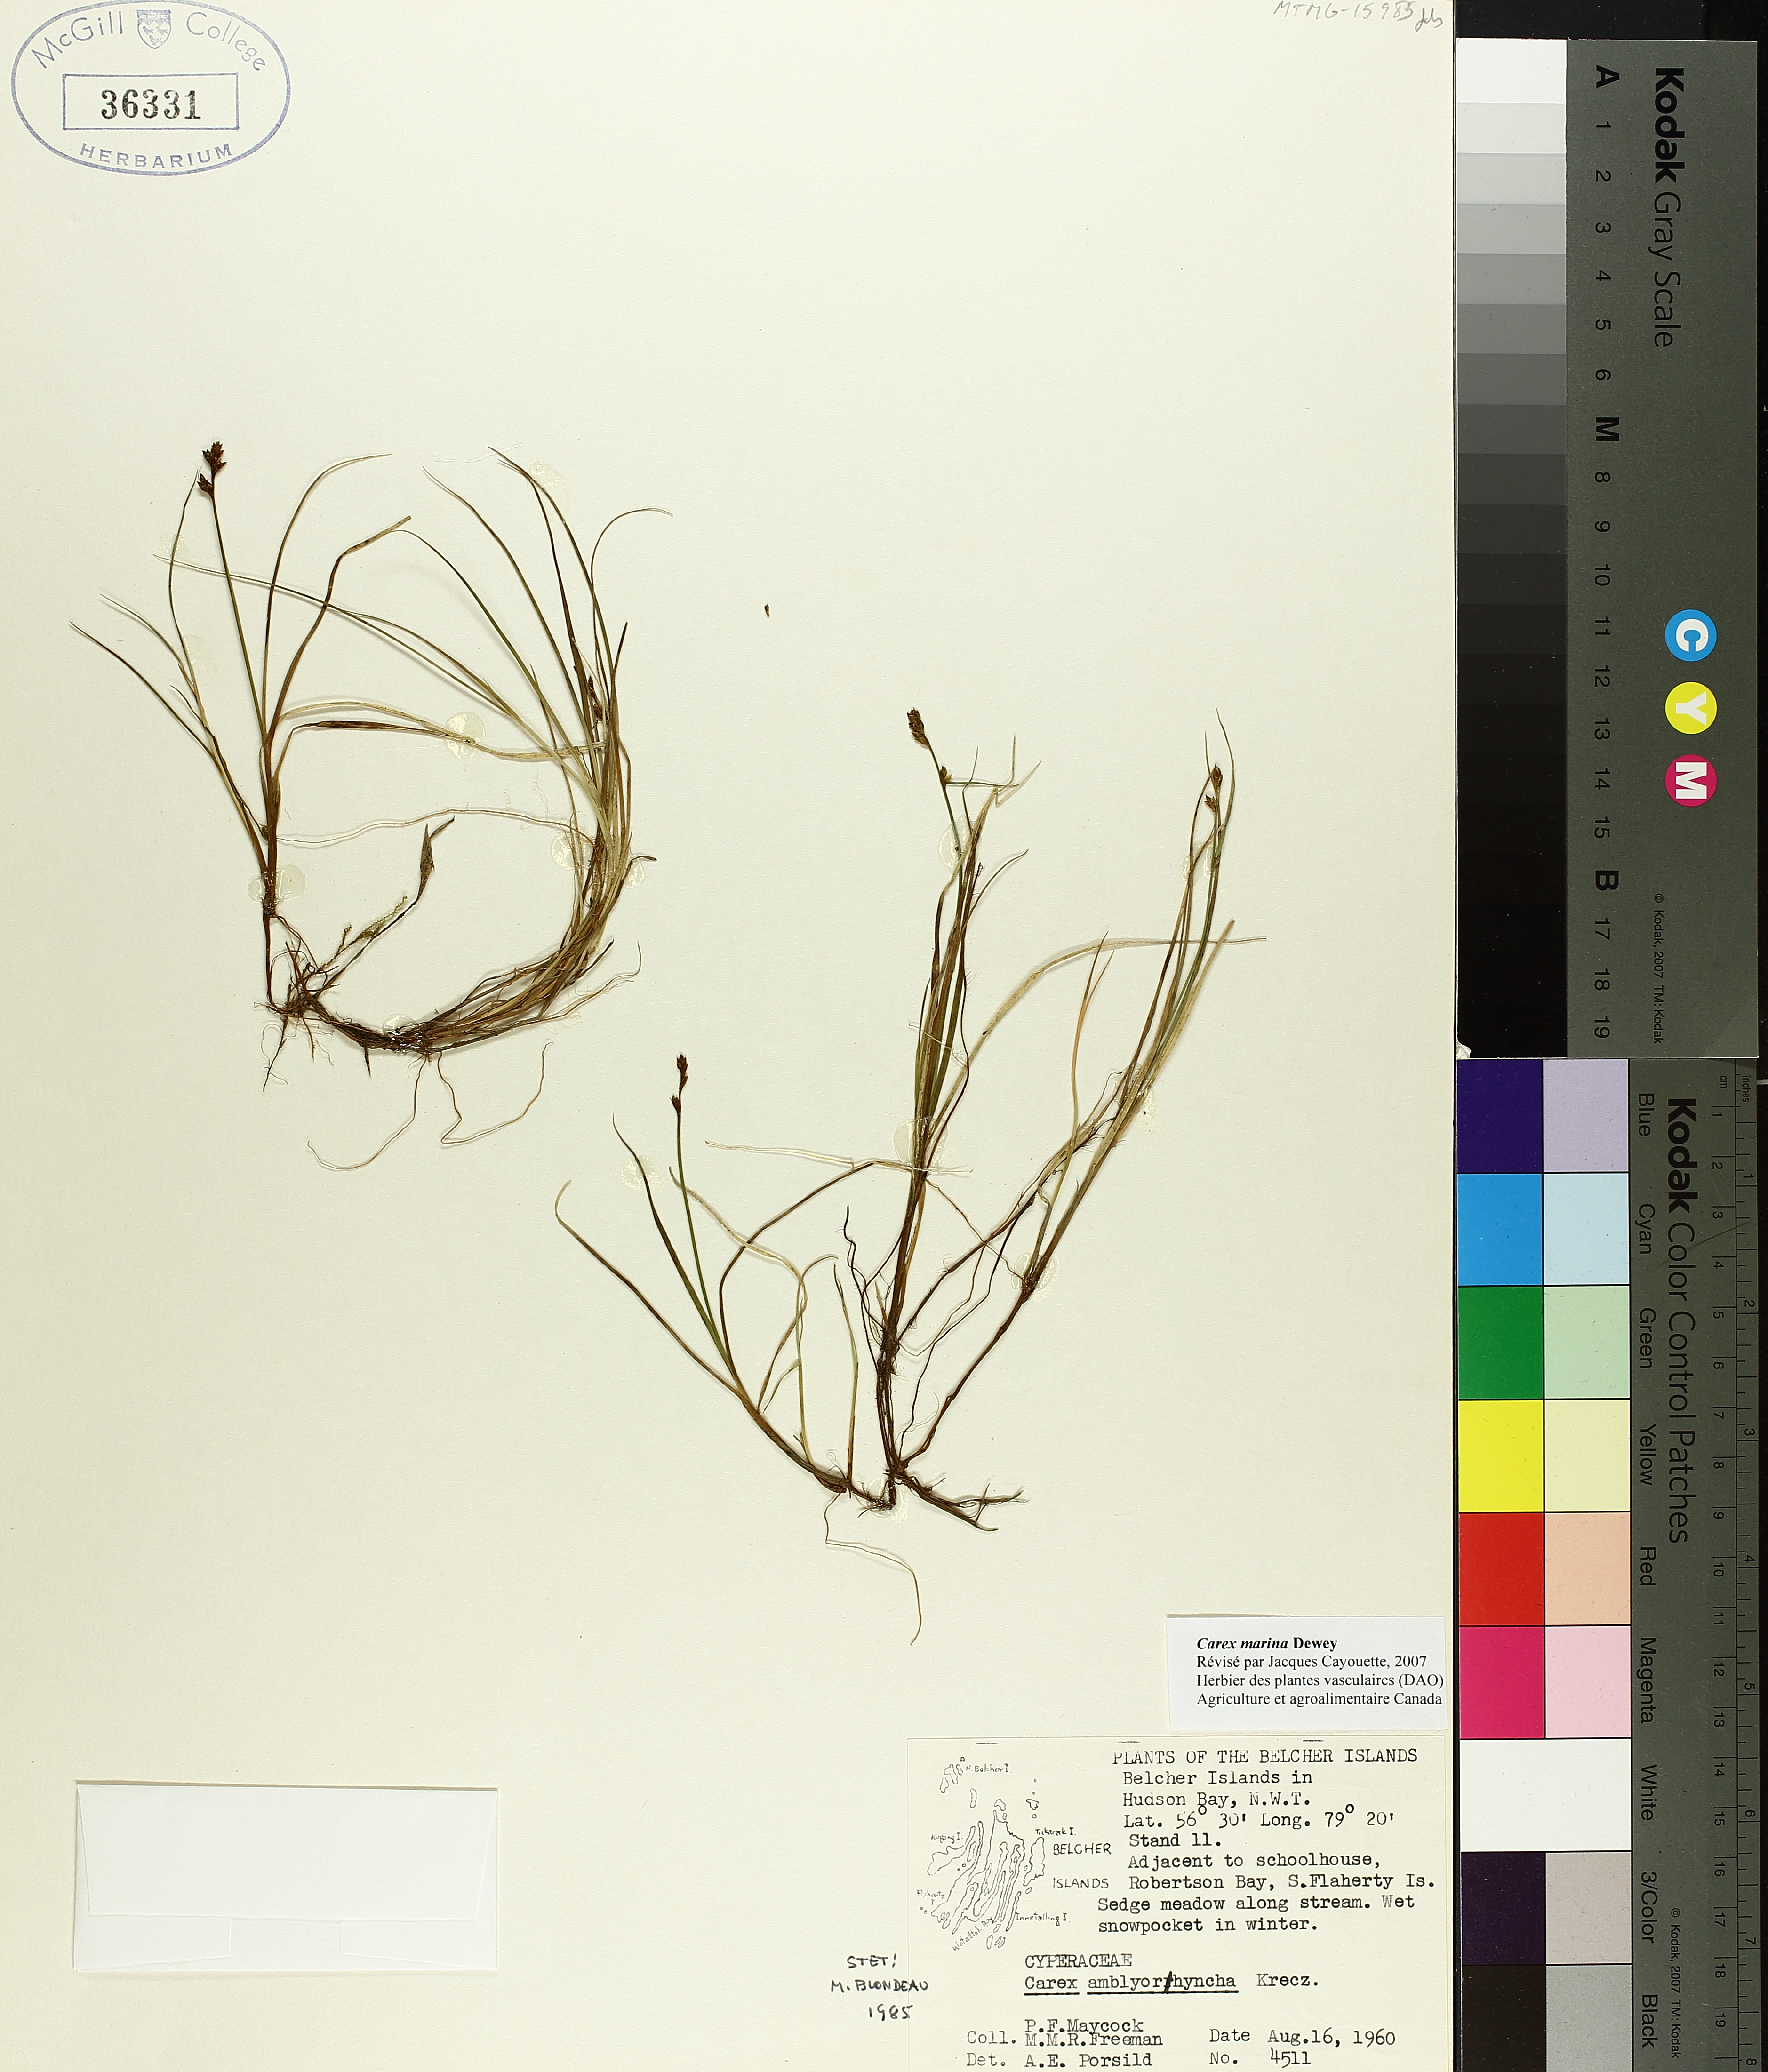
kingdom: Plantae
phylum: Tracheophyta
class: Liliopsida
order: Poales
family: Cyperaceae
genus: Carex
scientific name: Carex marina
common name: Seashore sedge
